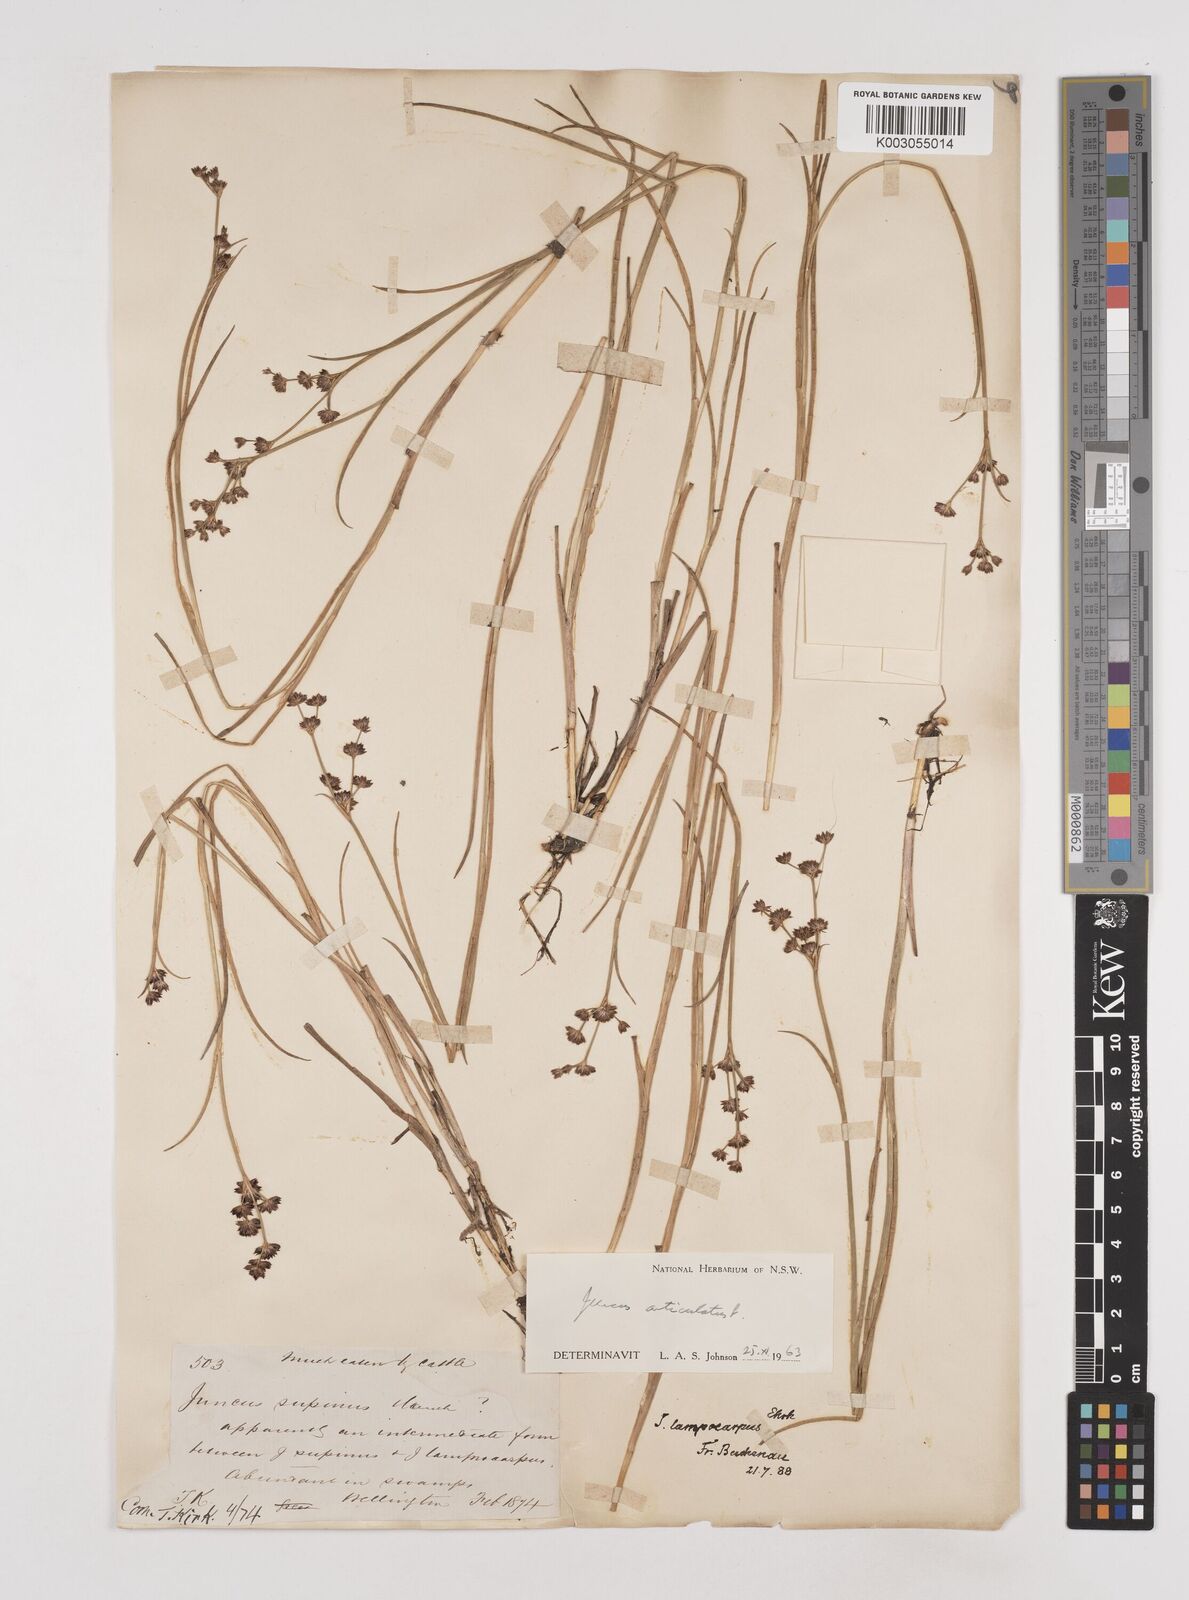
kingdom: Plantae
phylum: Tracheophyta
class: Liliopsida
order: Poales
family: Juncaceae
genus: Juncus
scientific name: Juncus articulatus
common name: Jointed rush
